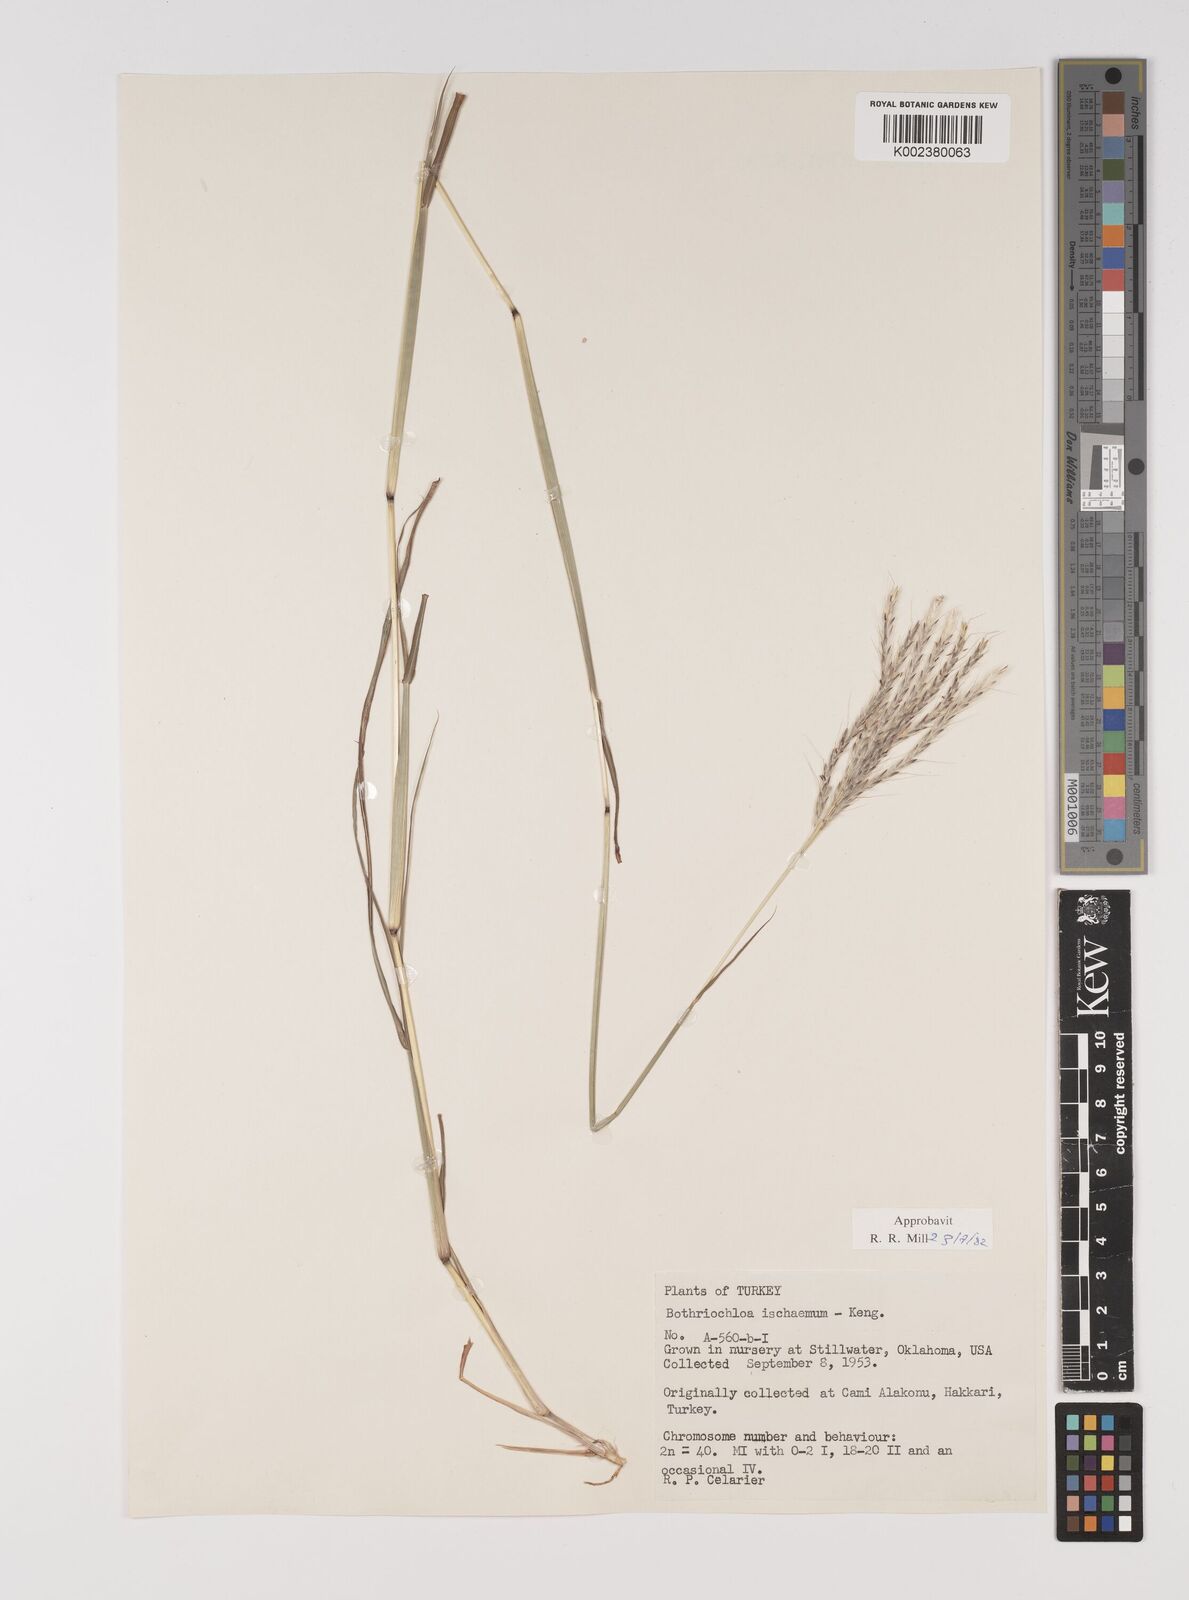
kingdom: Plantae
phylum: Tracheophyta
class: Liliopsida
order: Poales
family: Poaceae
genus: Bothriochloa
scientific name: Bothriochloa ischaemum
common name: Yellow bluestem
